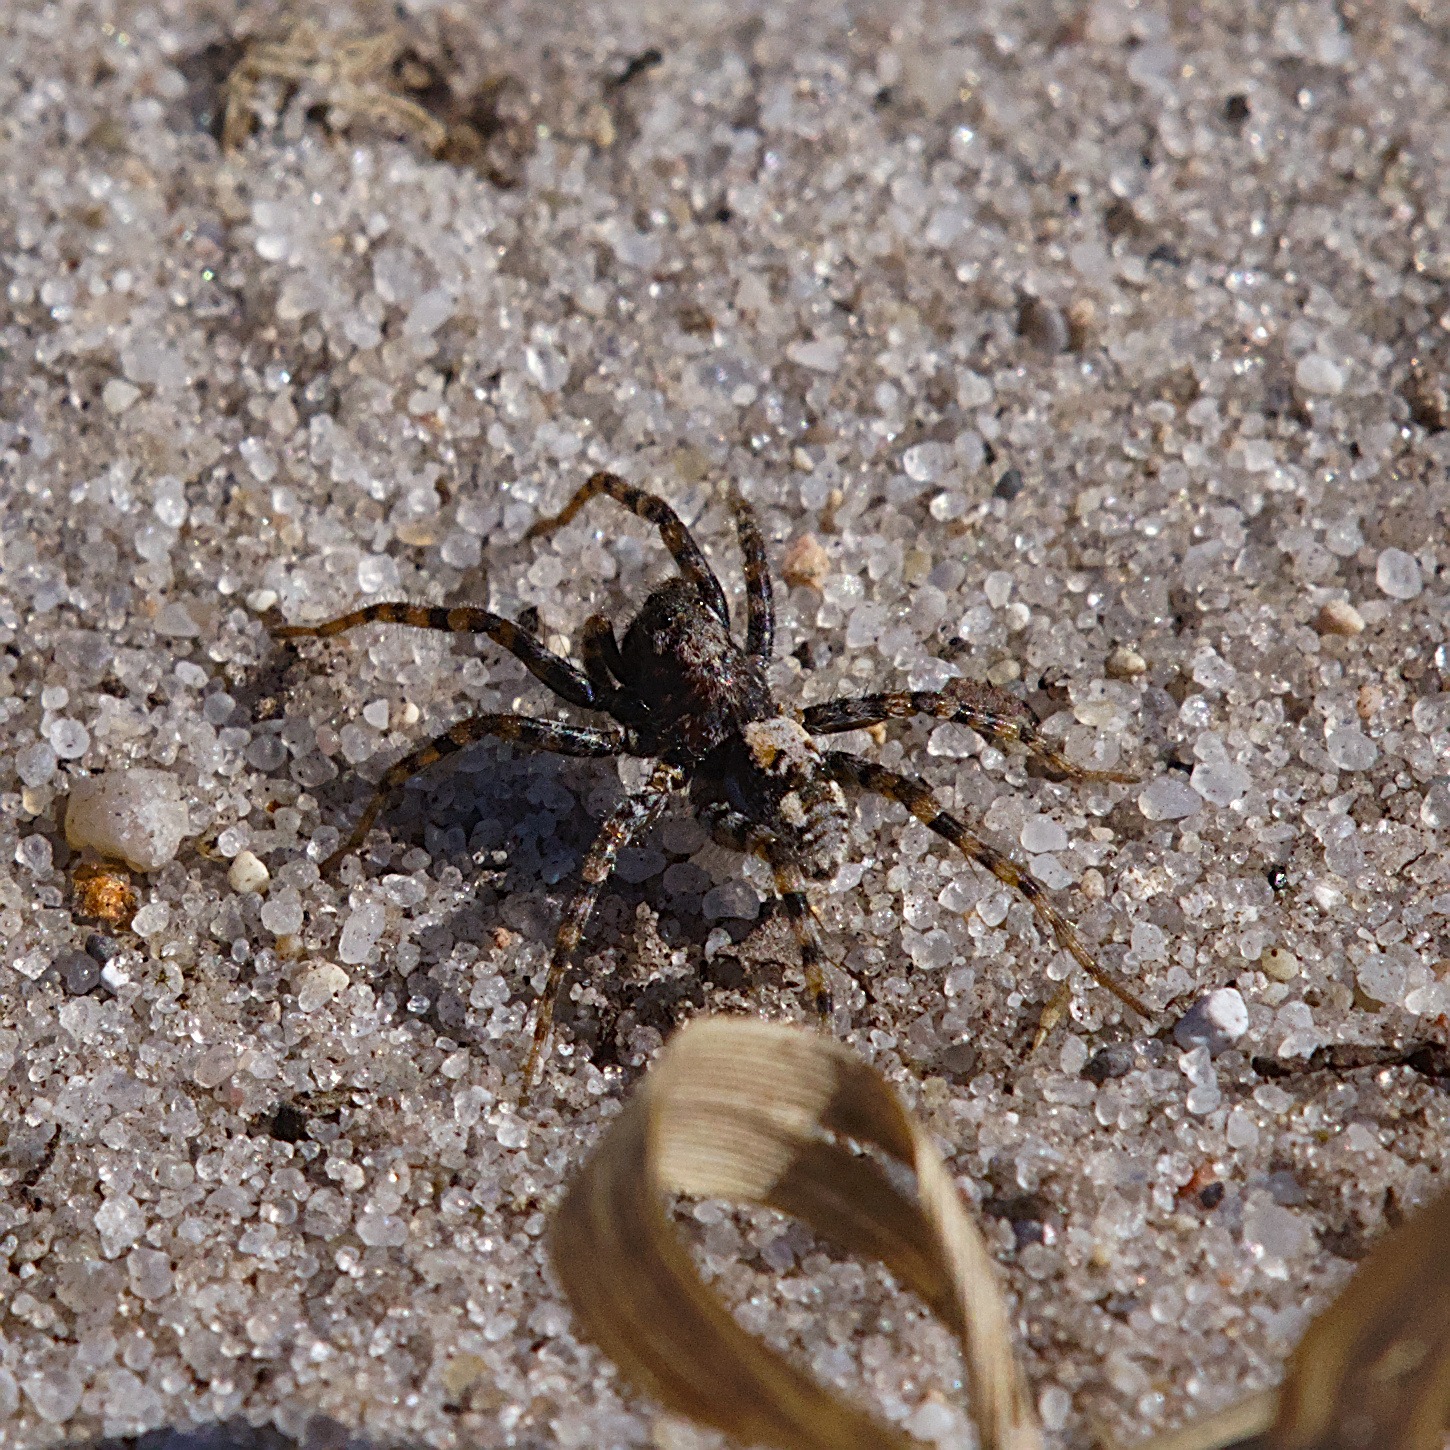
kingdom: Animalia
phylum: Arthropoda
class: Arachnida
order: Araneae
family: Lycosidae
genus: Arctosa
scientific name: Arctosa perita
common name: Klitgraveedderkop
